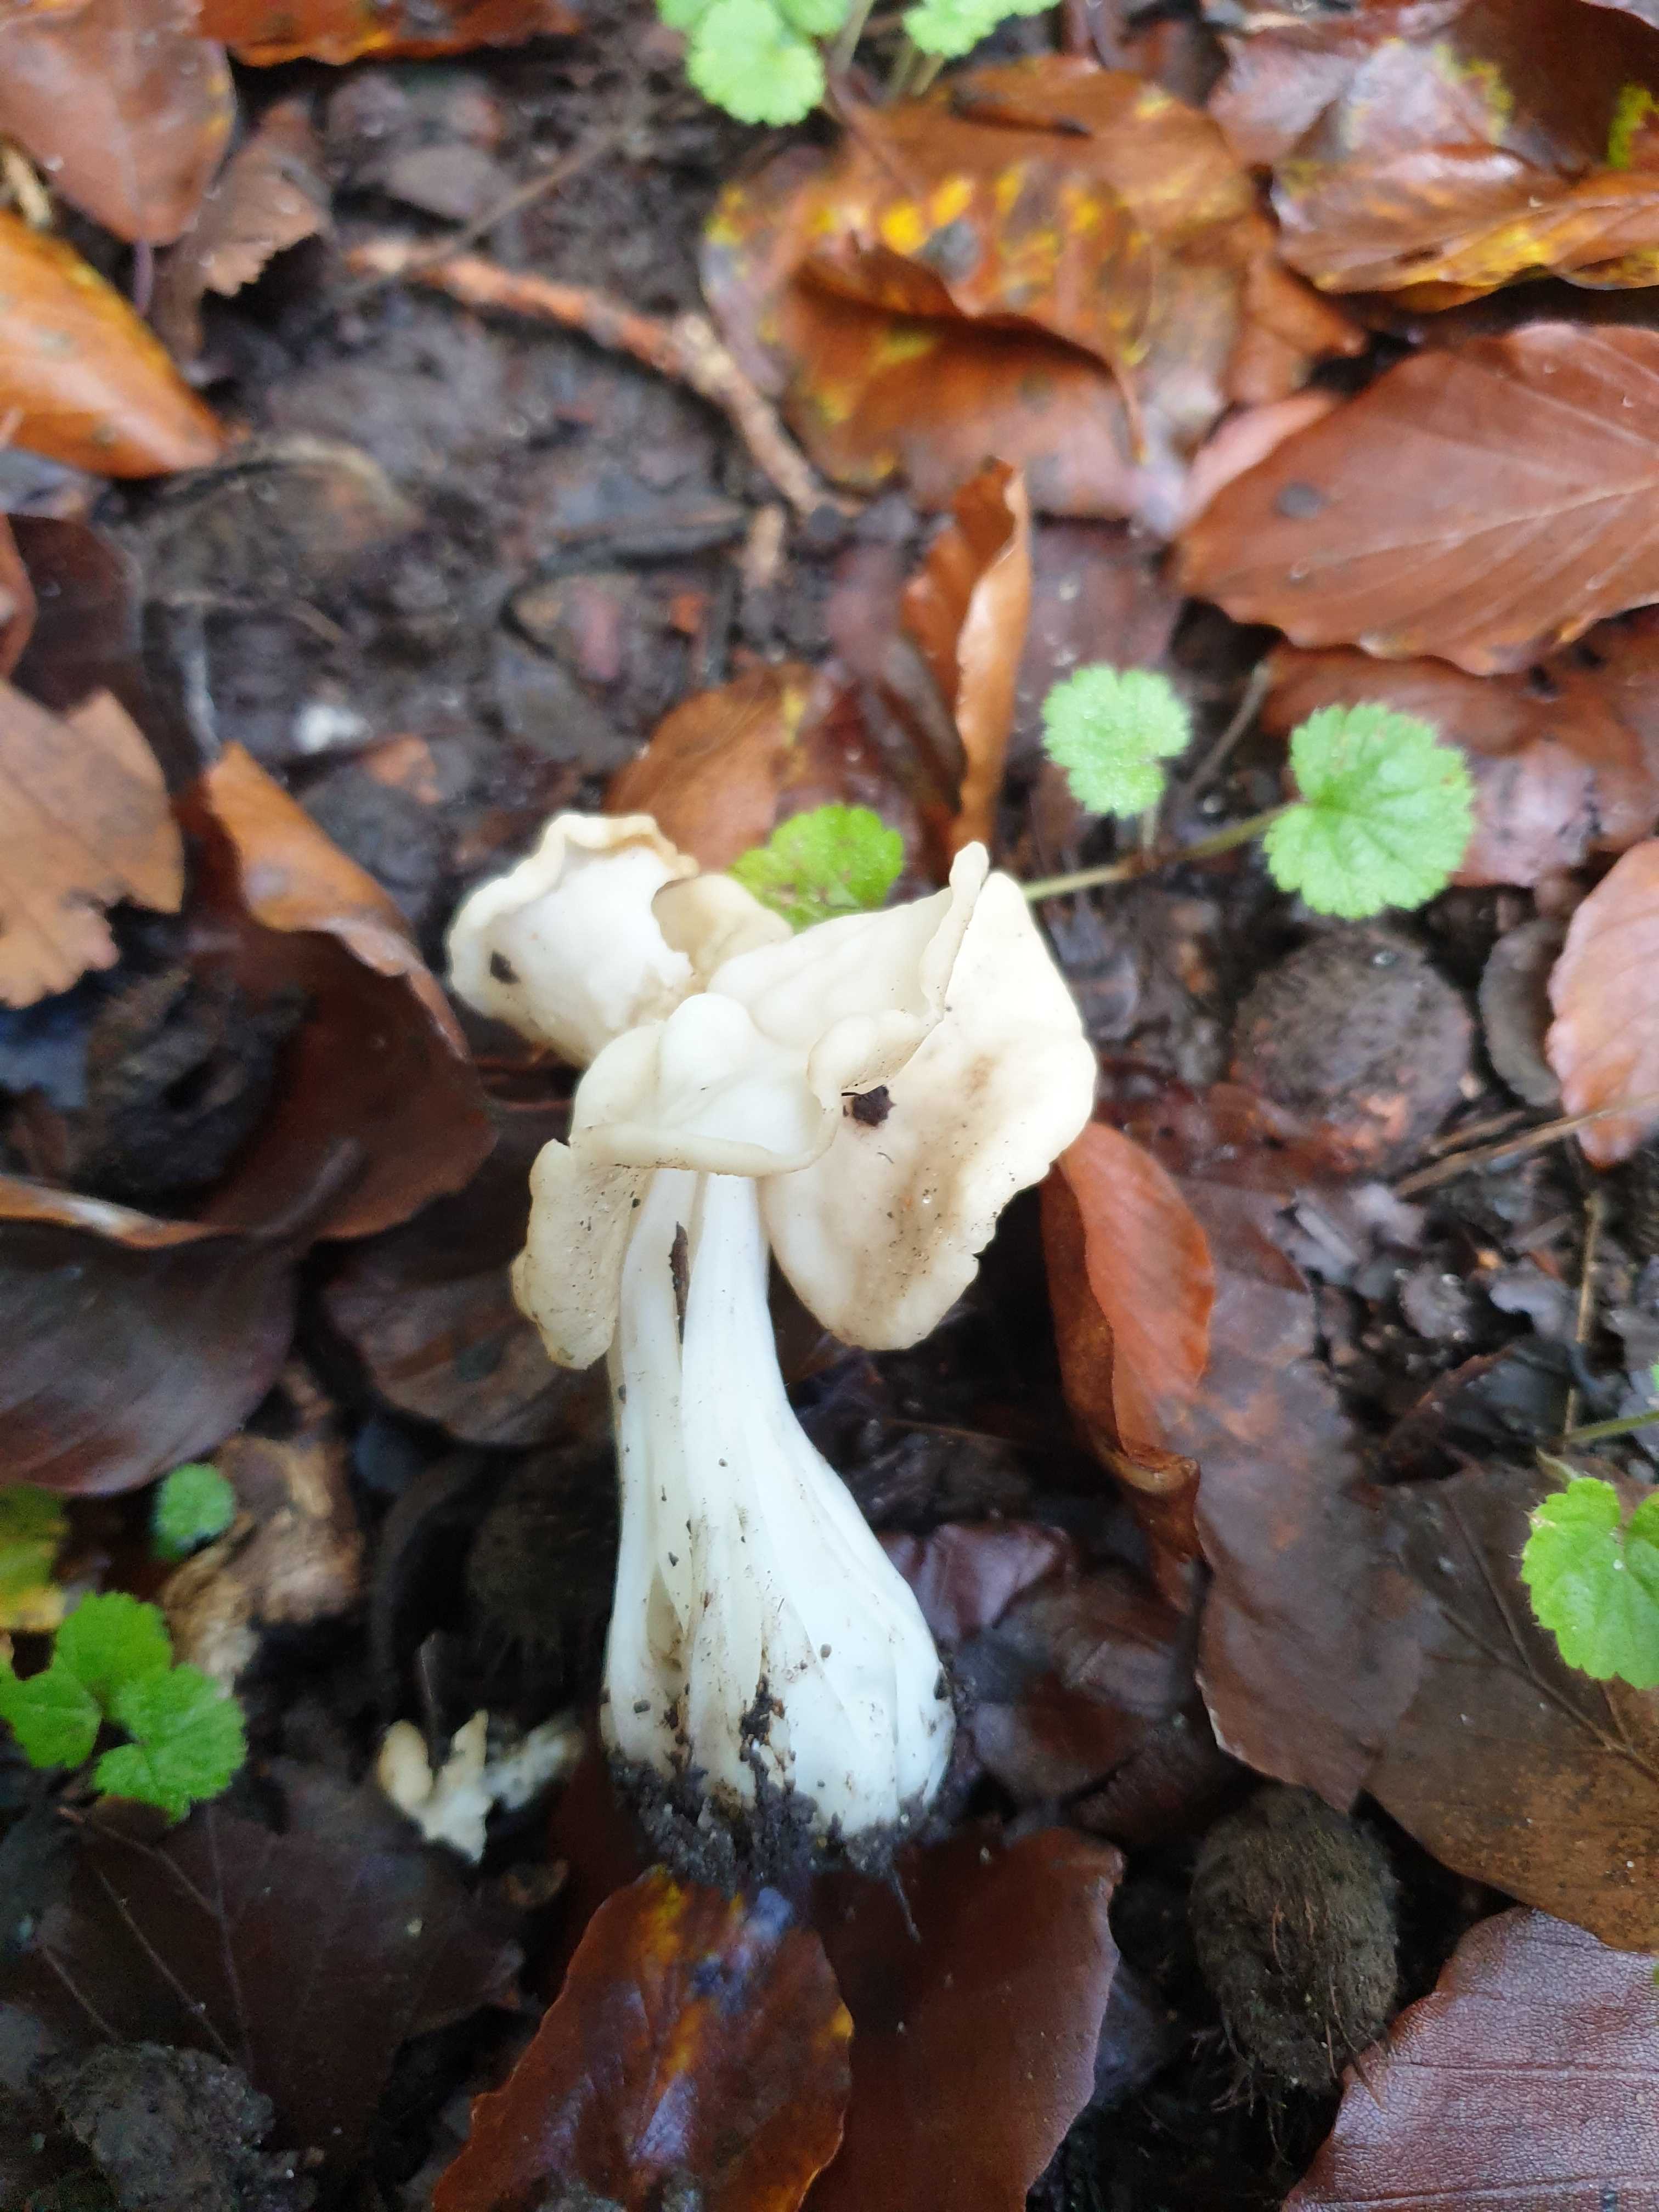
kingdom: Fungi
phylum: Ascomycota
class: Pezizomycetes
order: Pezizales
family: Helvellaceae
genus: Helvella
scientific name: Helvella crispa
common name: kruset foldhat
